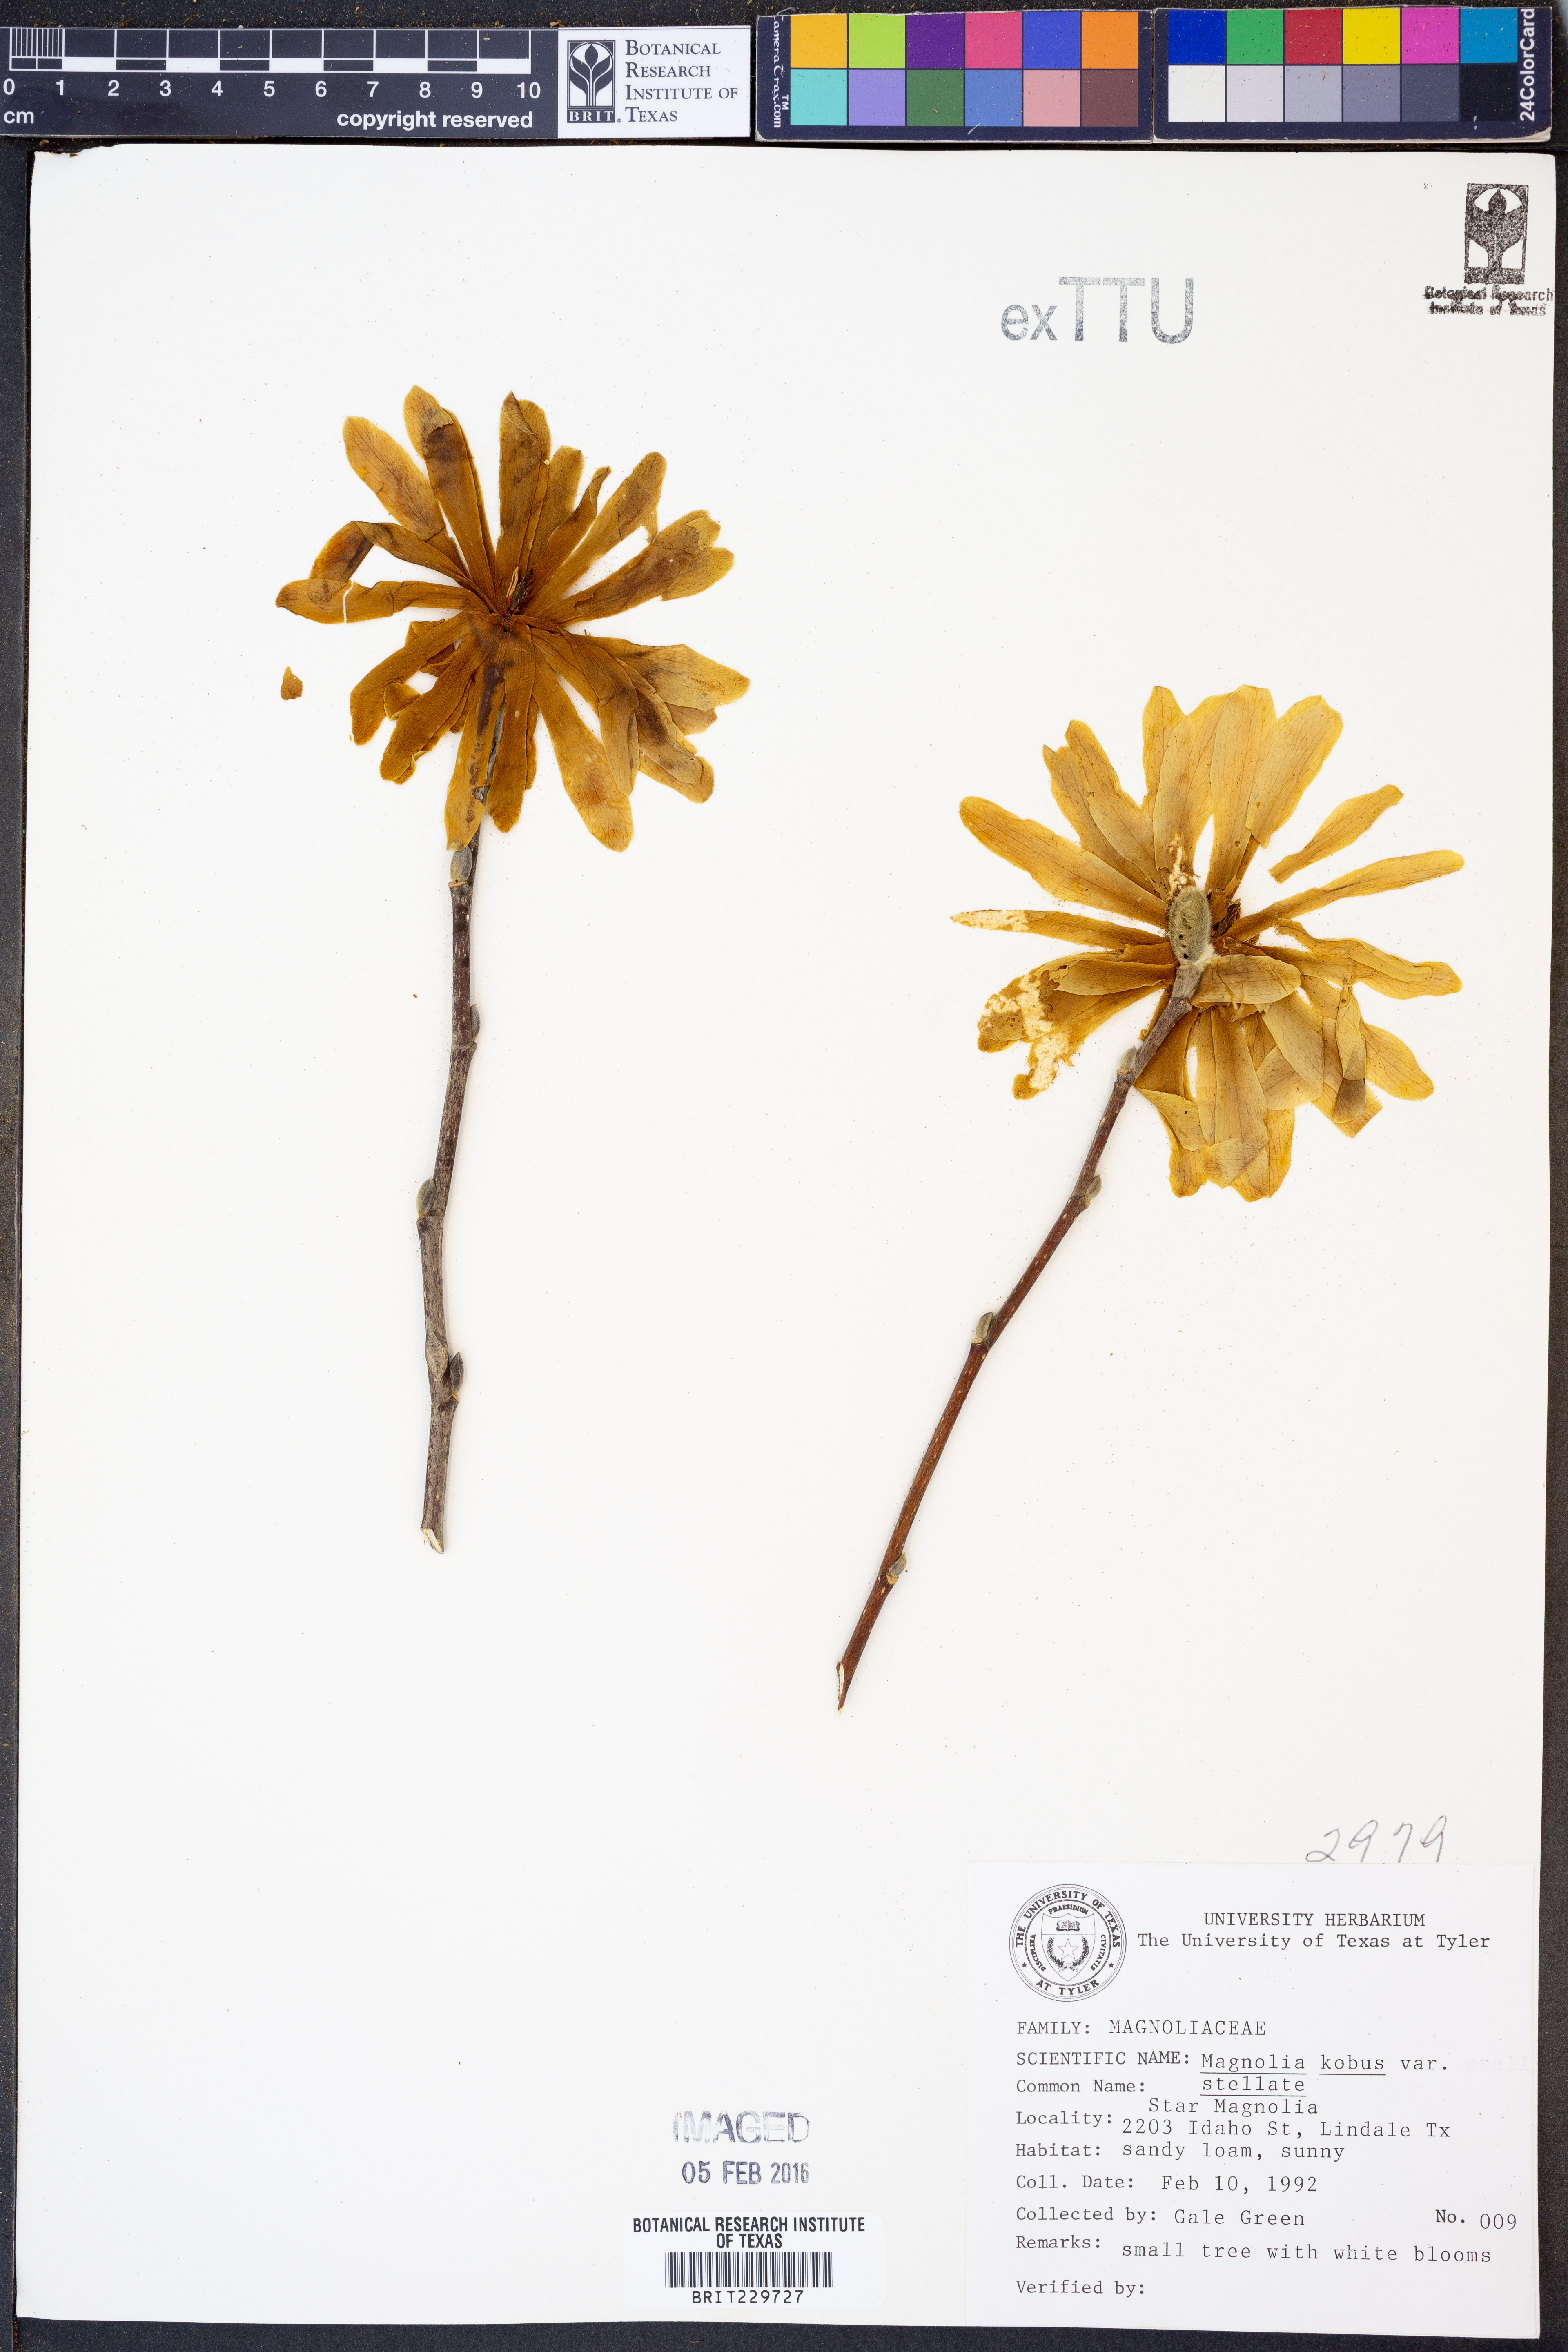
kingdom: Plantae
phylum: Tracheophyta
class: Magnoliopsida
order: Magnoliales
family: Magnoliaceae
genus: Magnolia
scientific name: Magnolia stellata
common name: Star magnolia
